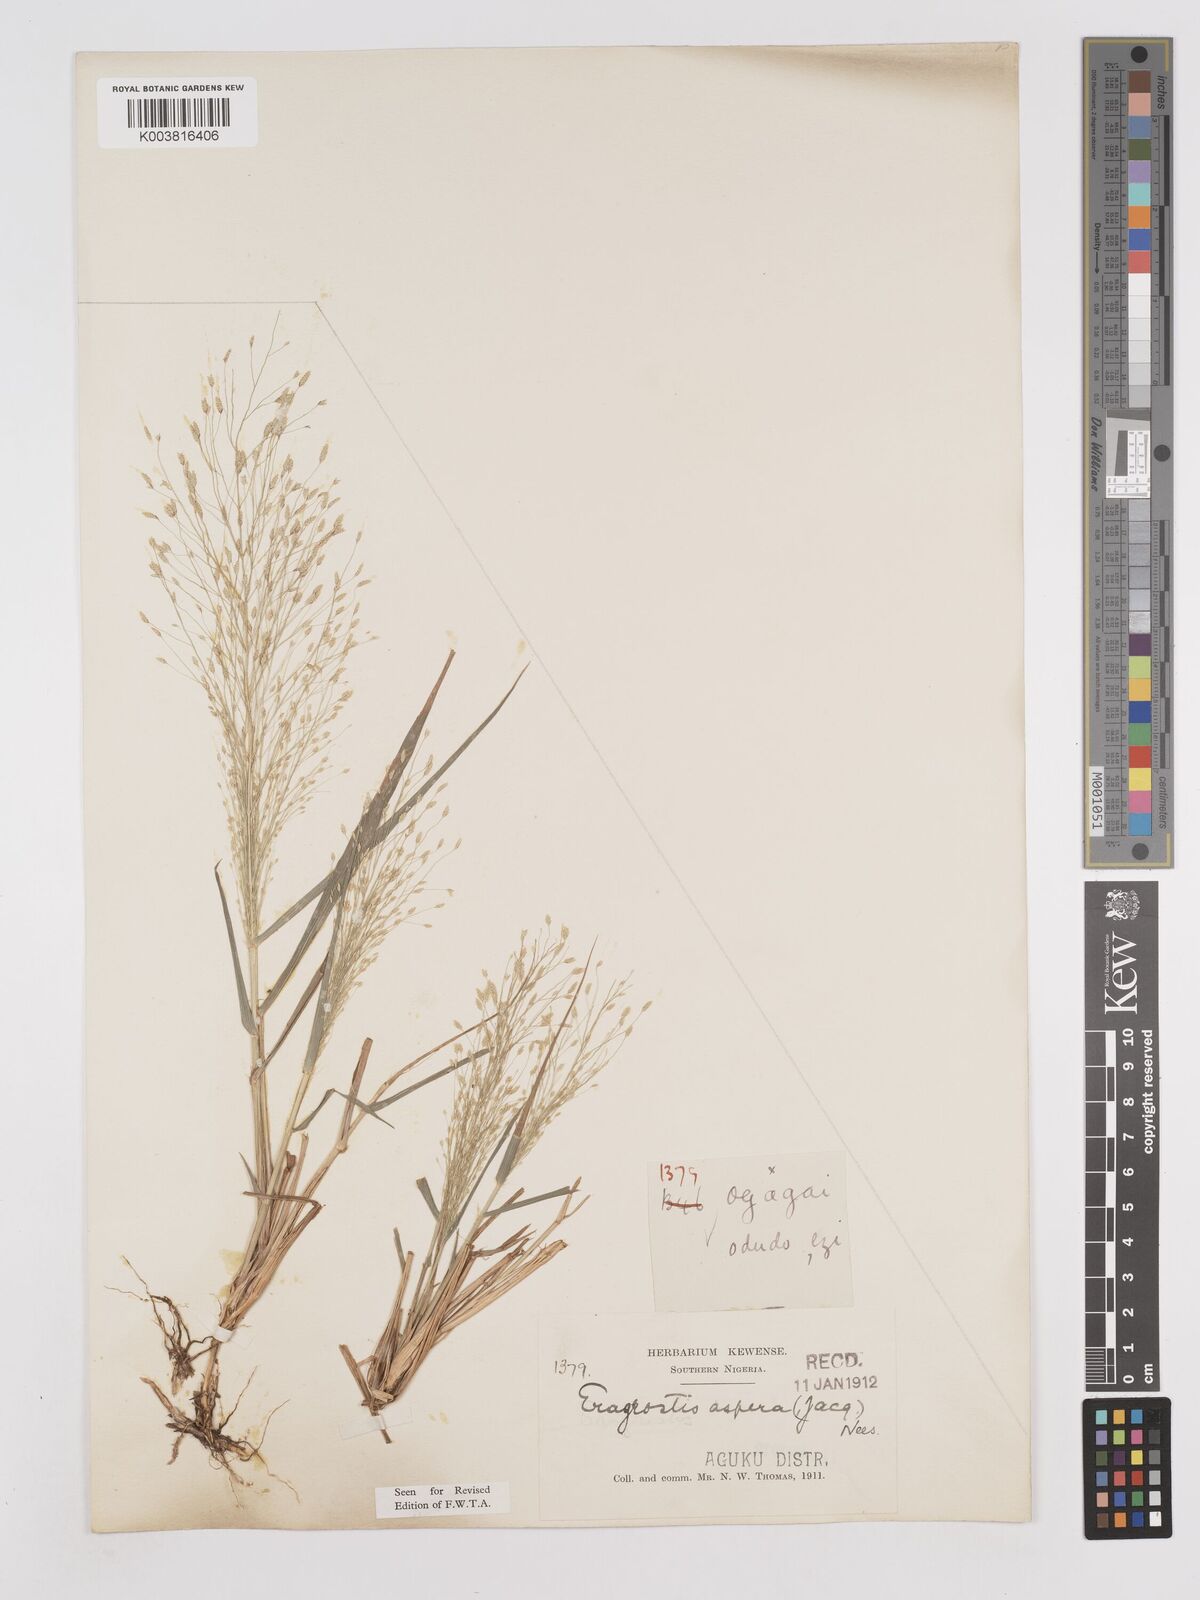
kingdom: Plantae
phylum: Tracheophyta
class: Liliopsida
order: Poales
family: Poaceae
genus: Eragrostis
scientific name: Eragrostis aspera
